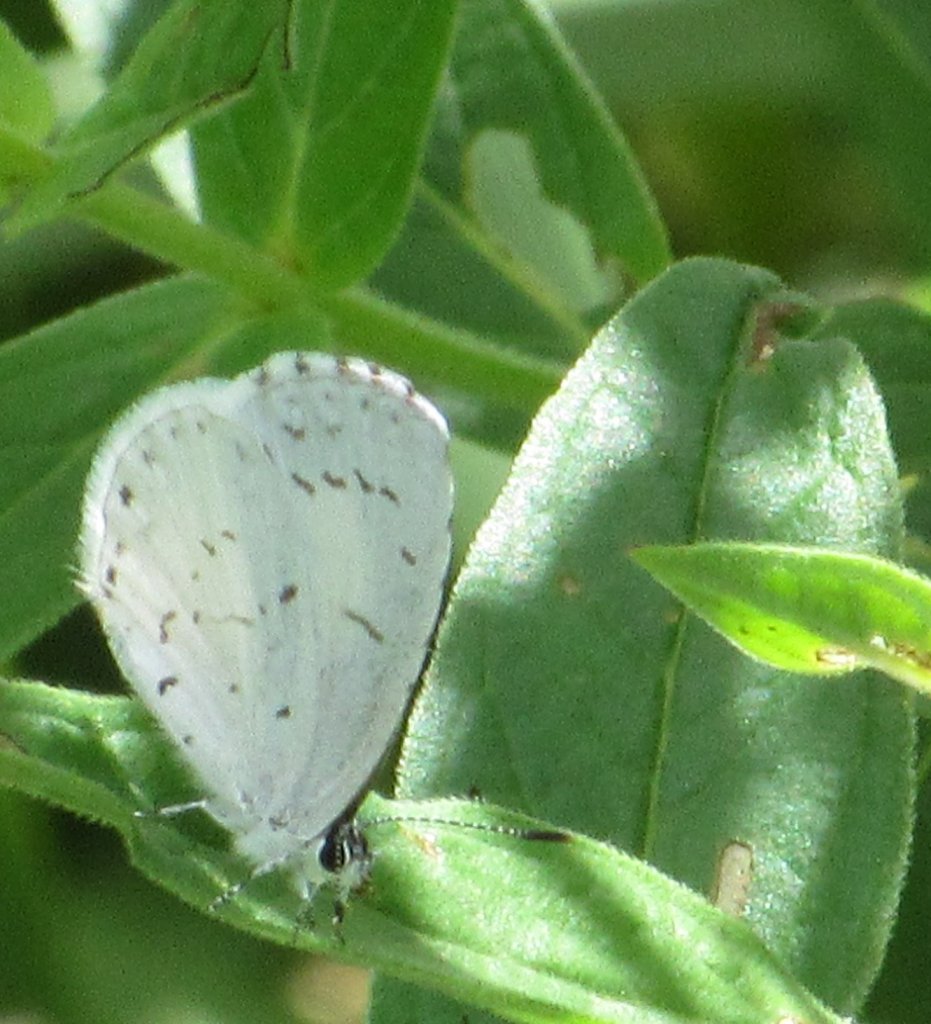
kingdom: Animalia
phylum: Arthropoda
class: Insecta
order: Lepidoptera
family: Lycaenidae
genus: Celastrina
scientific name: Celastrina
